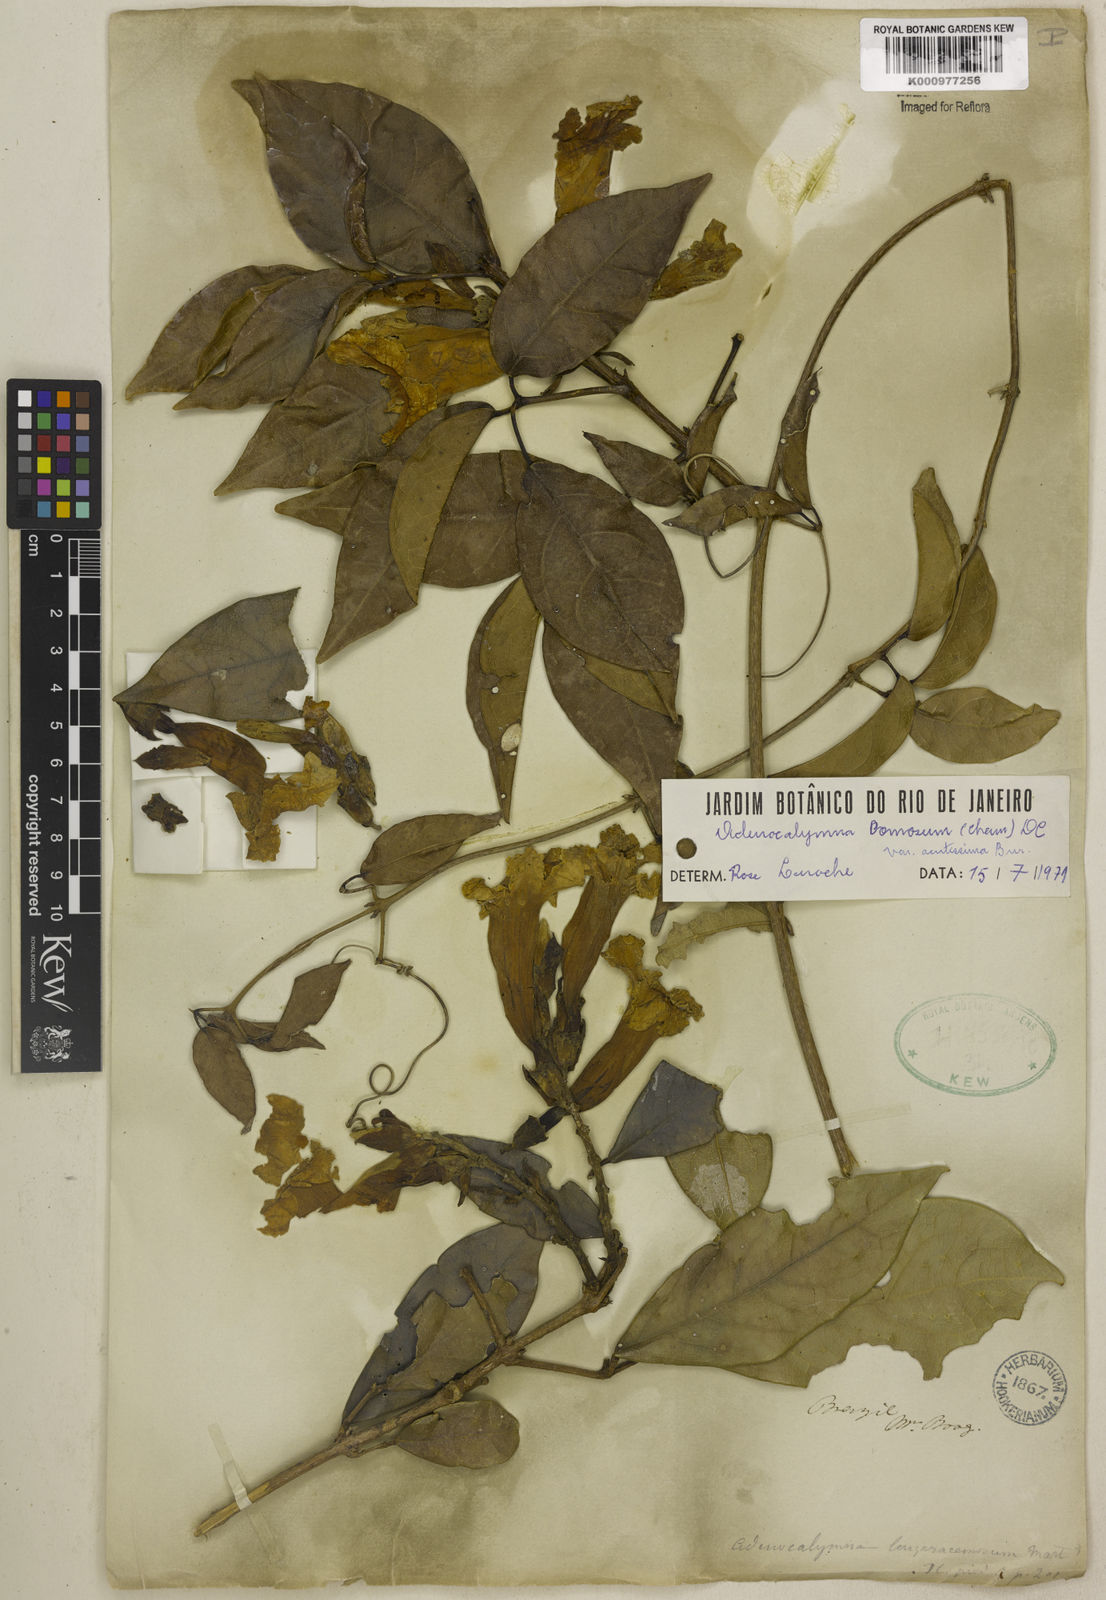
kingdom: Plantae
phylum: Tracheophyta
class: Magnoliopsida
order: Lamiales
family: Bignoniaceae
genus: Adenocalymma
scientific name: Adenocalymma acutissimum
